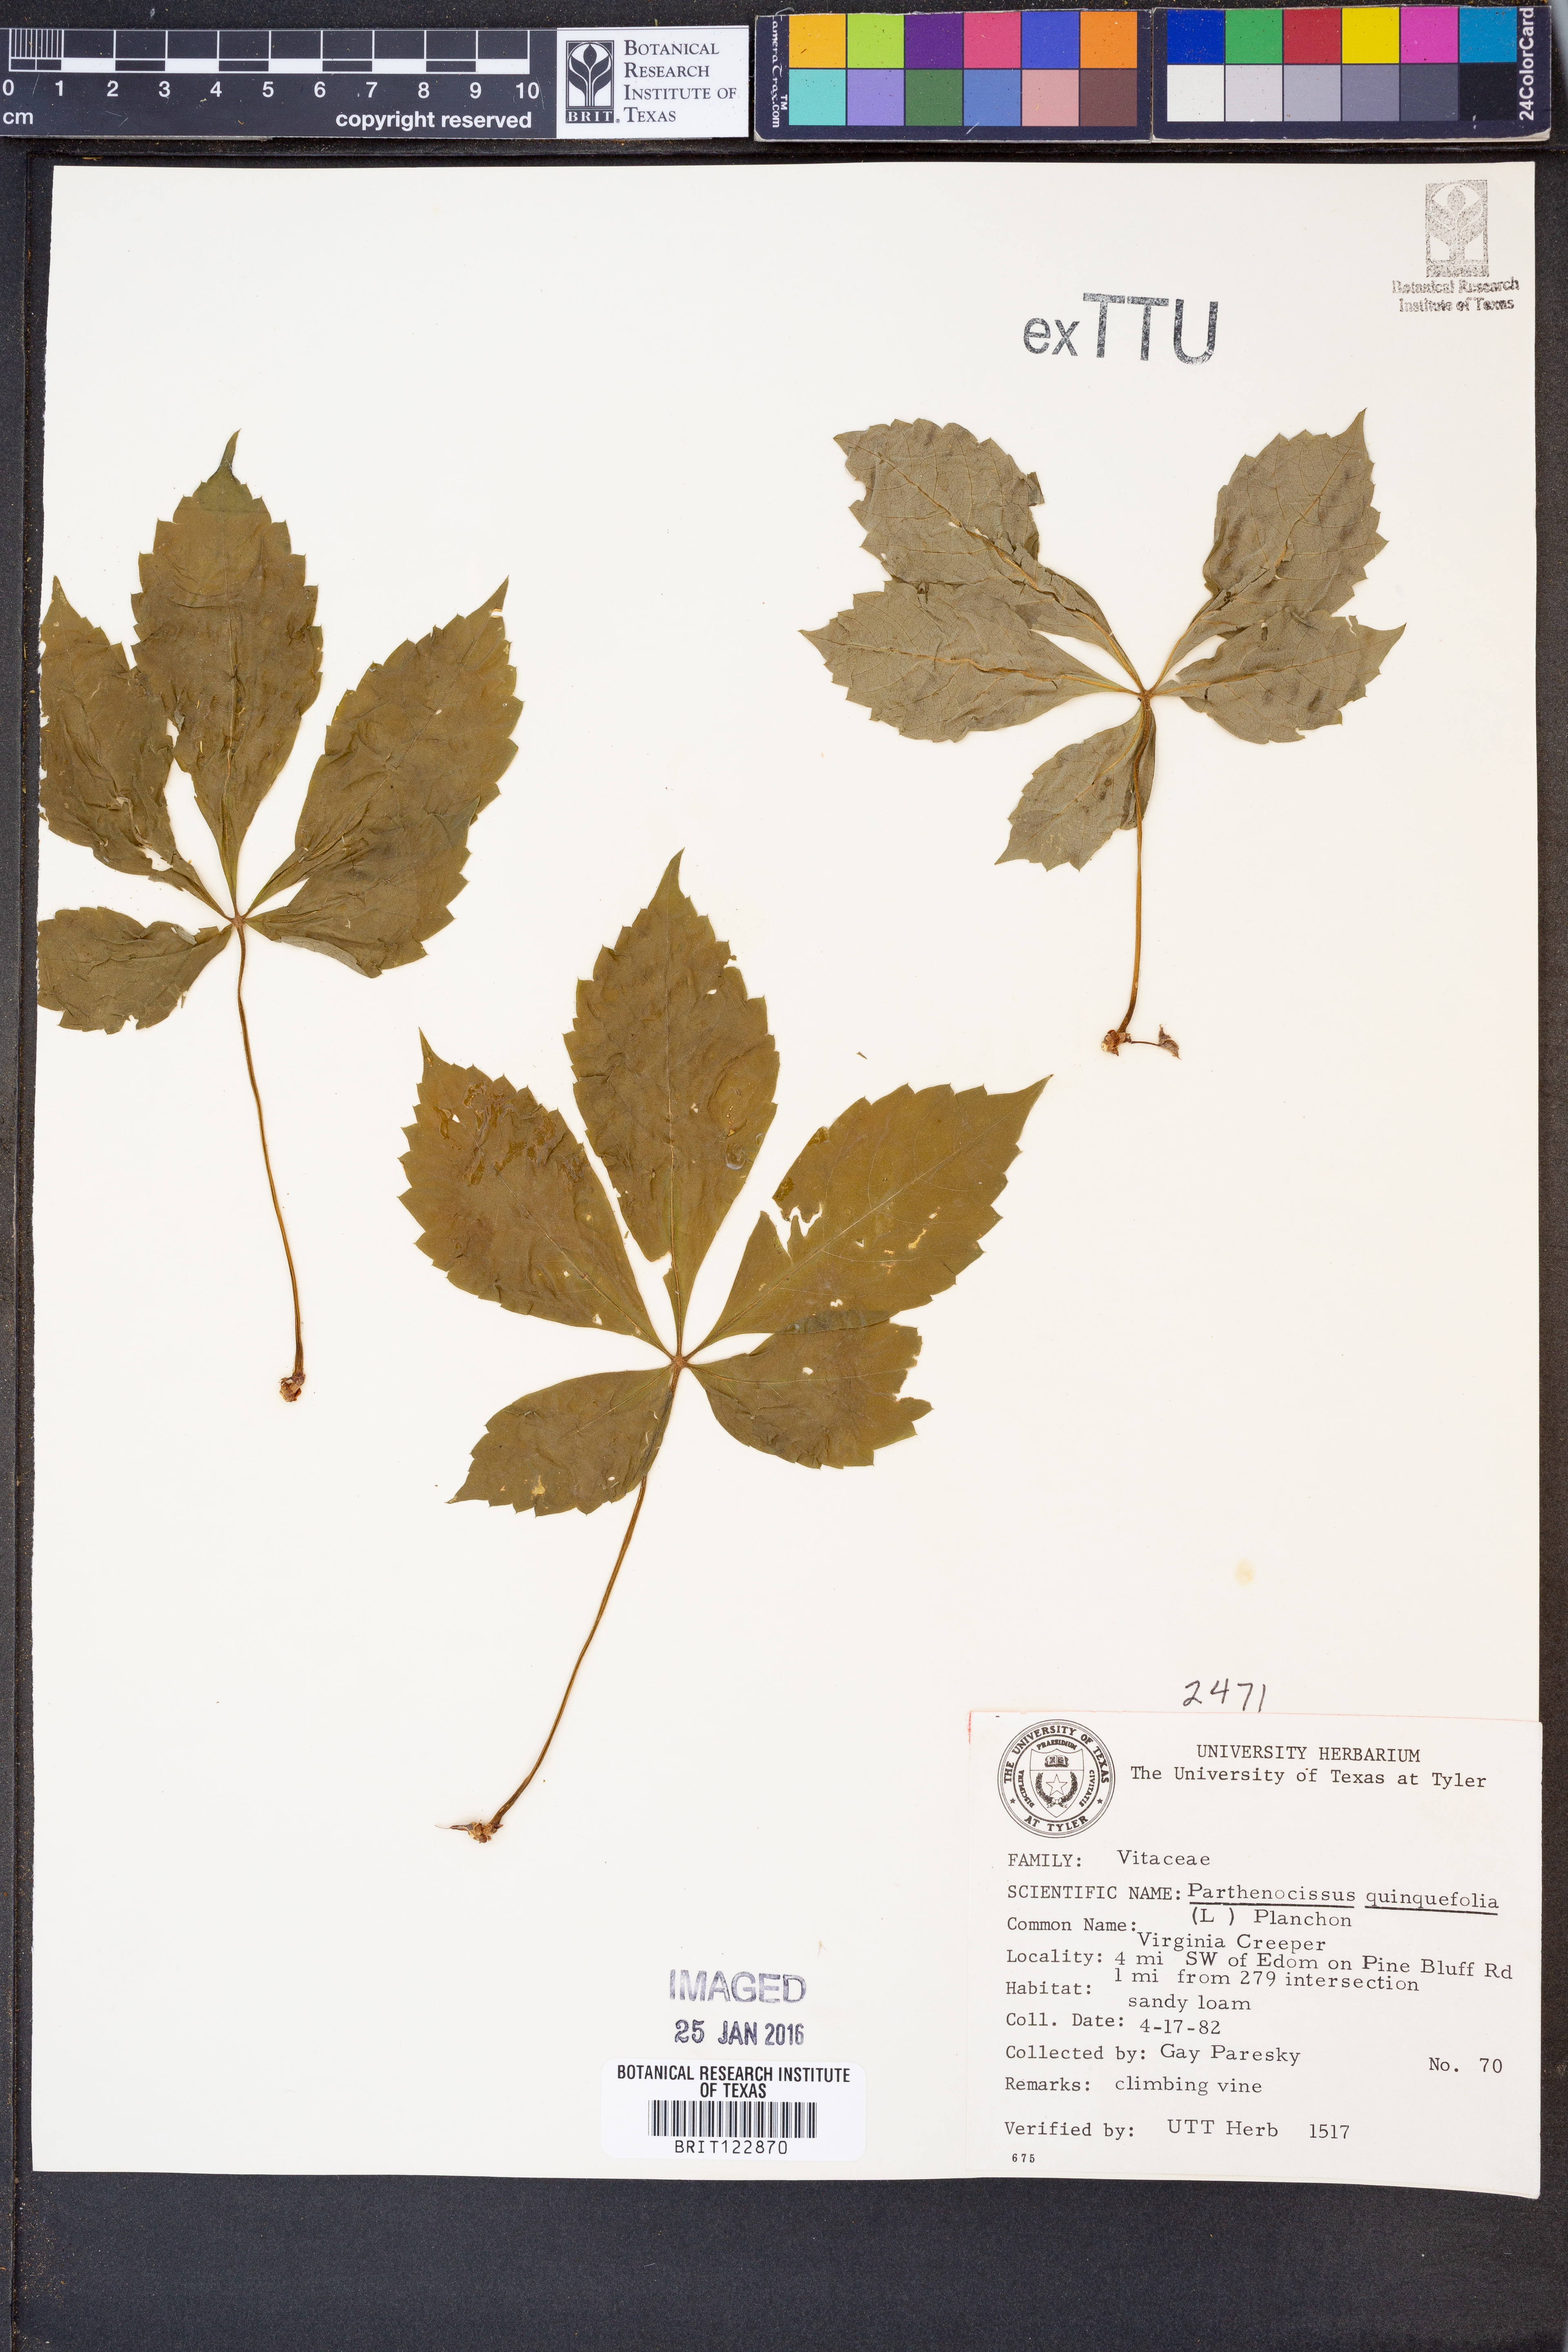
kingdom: Plantae
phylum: Tracheophyta
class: Magnoliopsida
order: Vitales
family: Vitaceae
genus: Parthenocissus
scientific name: Parthenocissus quinquefolia
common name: Virginia-creeper
